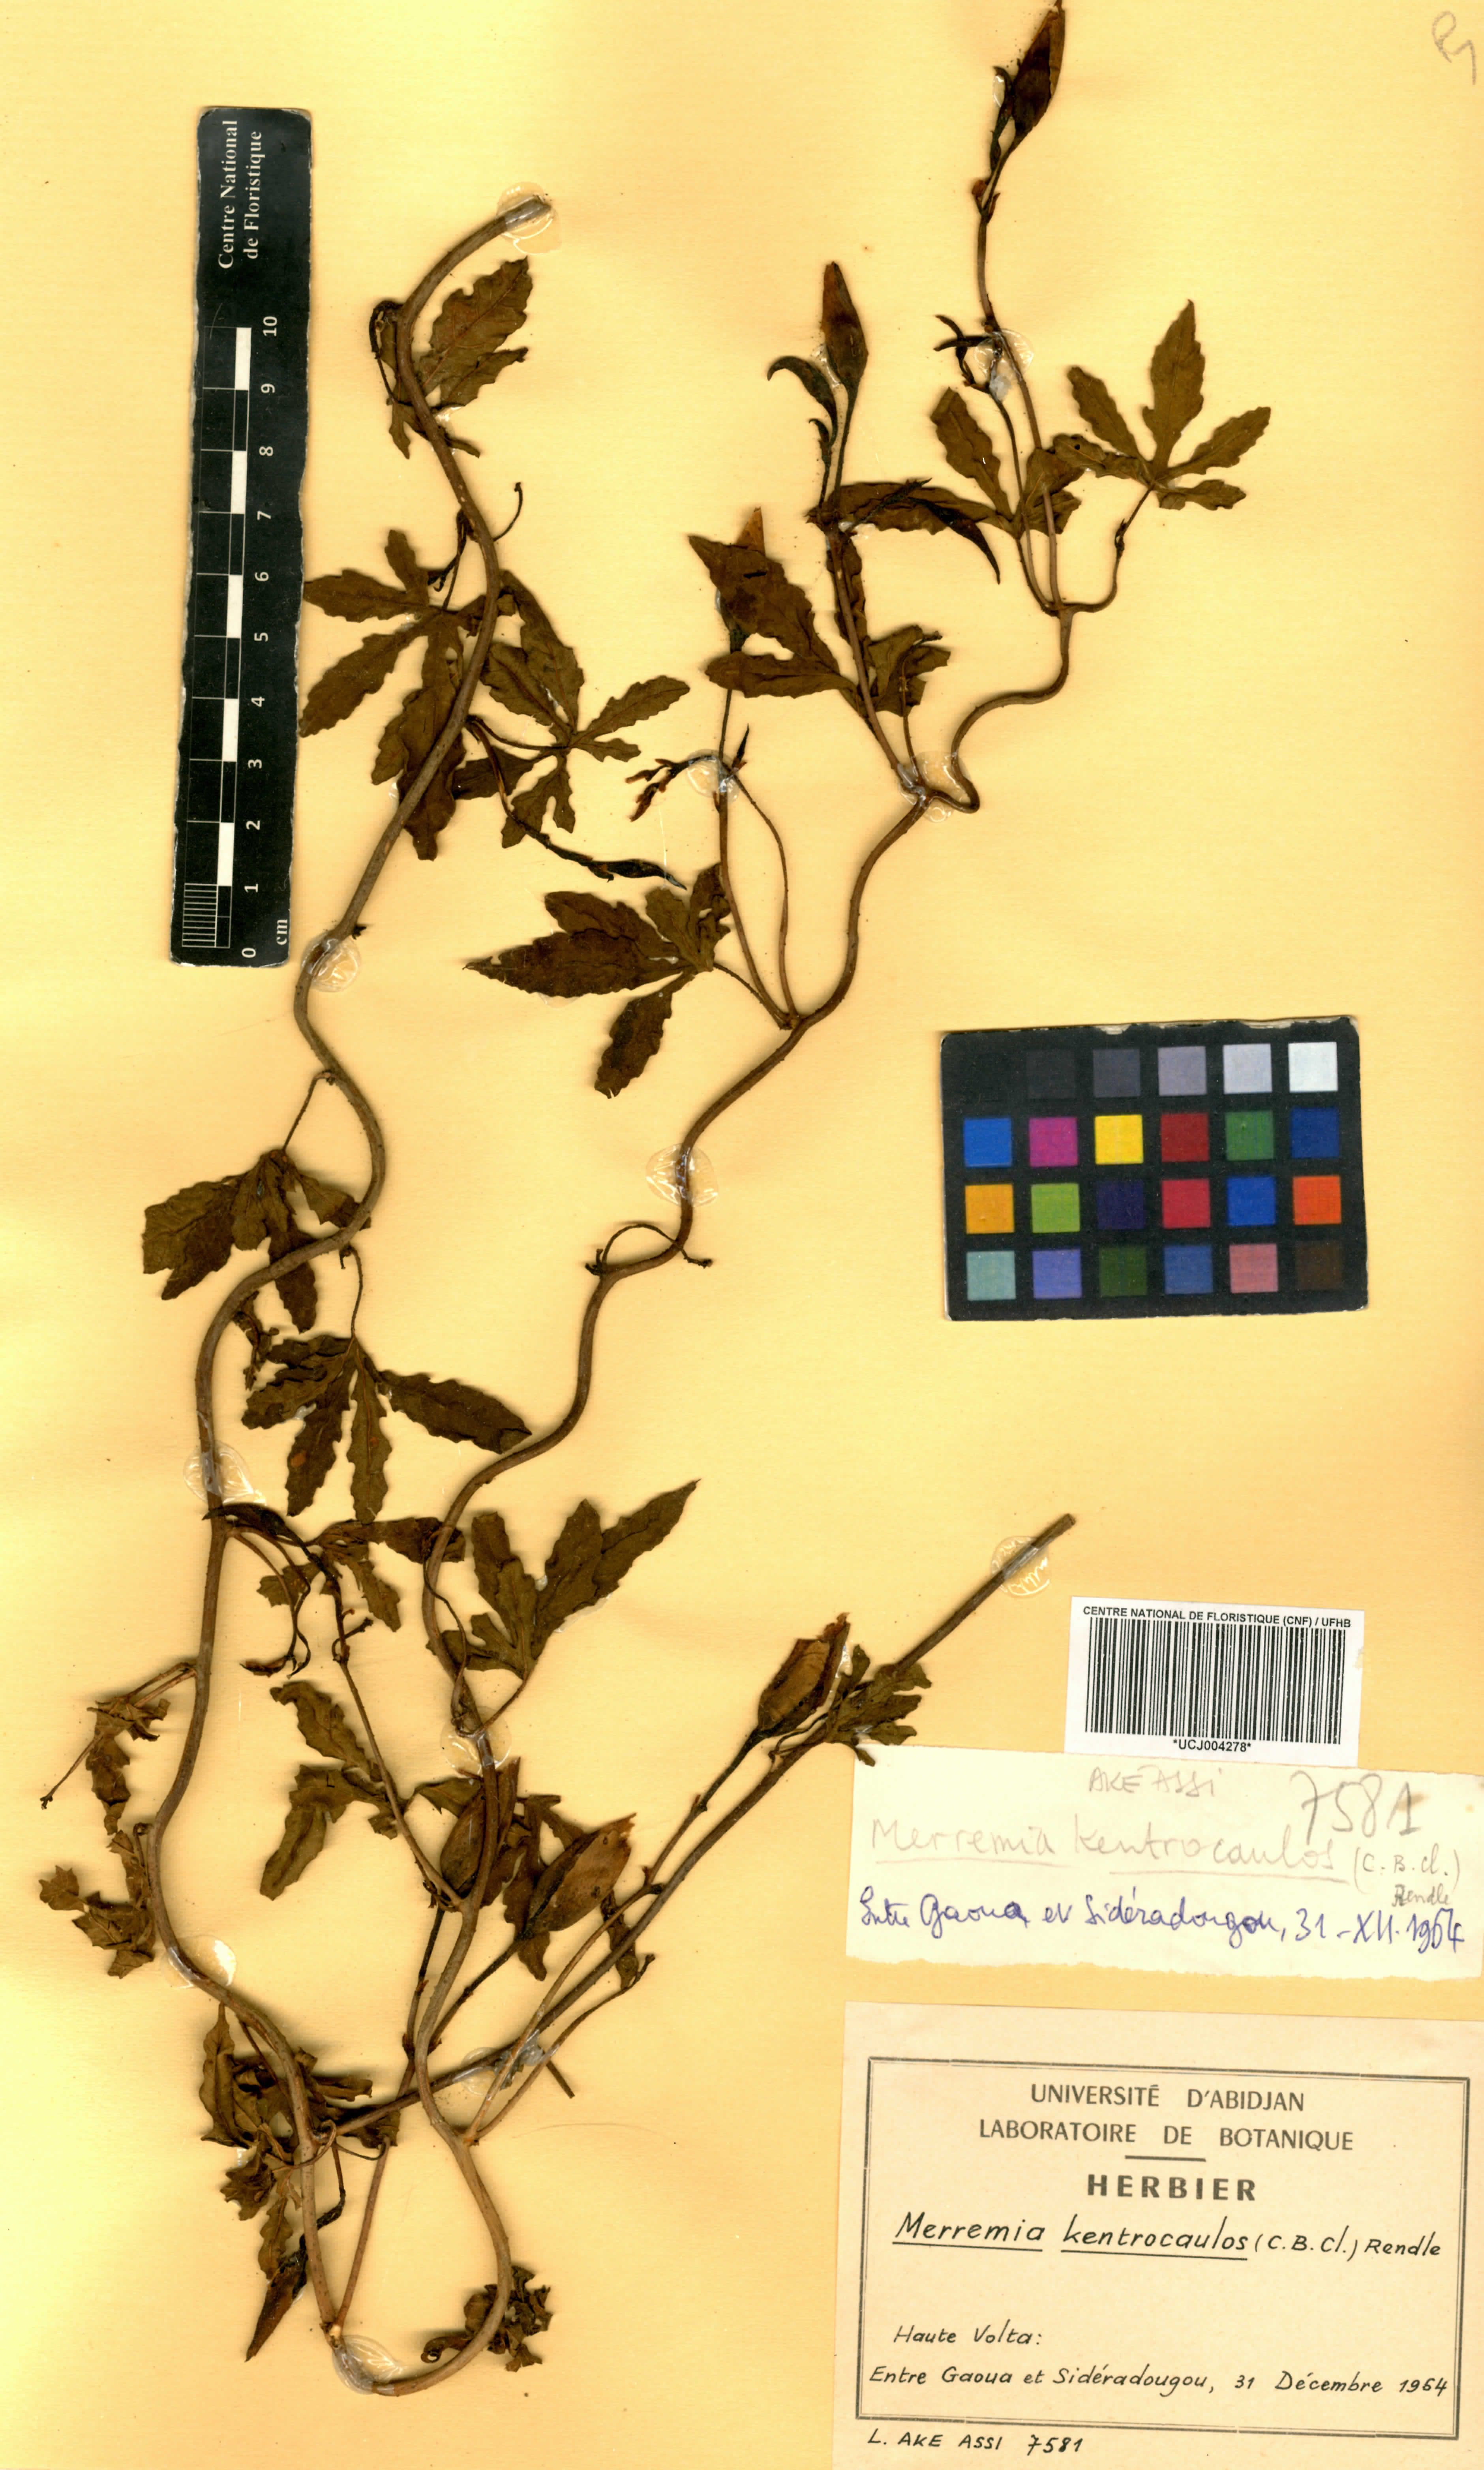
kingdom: Plantae
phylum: Tracheophyta
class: Magnoliopsida
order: Solanales
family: Convolvulaceae
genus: Distimake
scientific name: Distimake kentrocaulos
